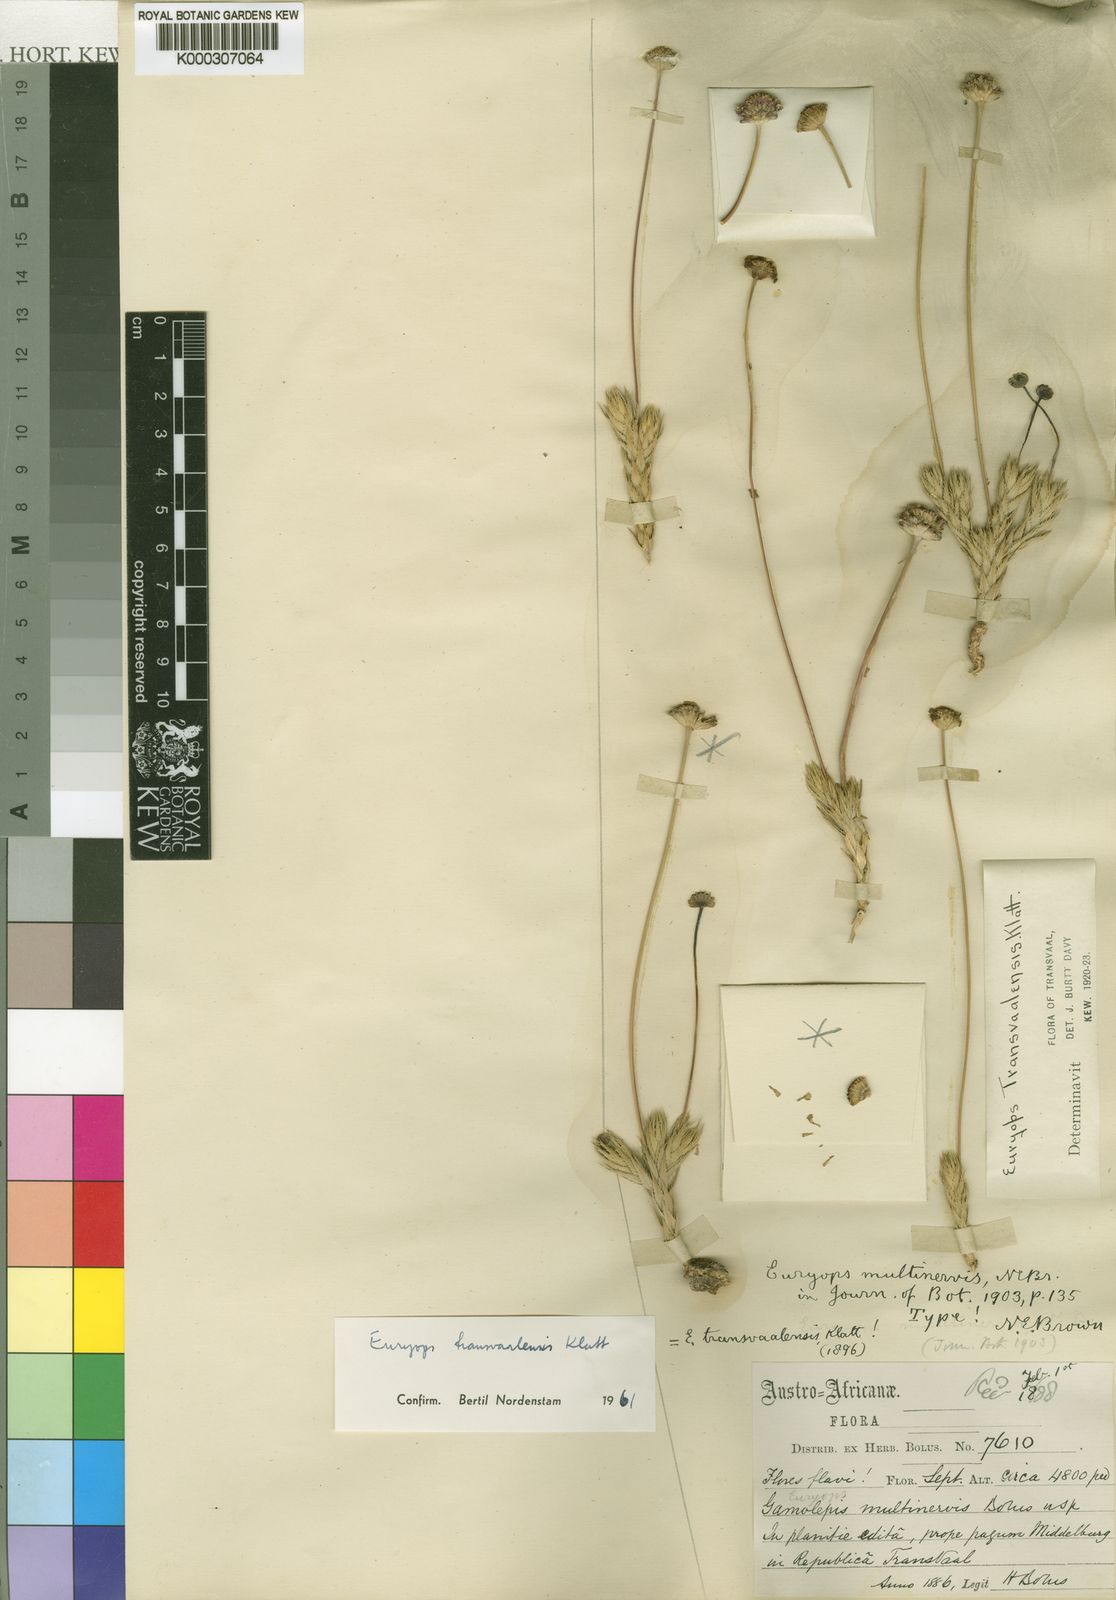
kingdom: Plantae
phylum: Tracheophyta
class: Magnoliopsida
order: Asterales
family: Asteraceae
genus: Euryops
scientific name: Euryops transvaalensis
